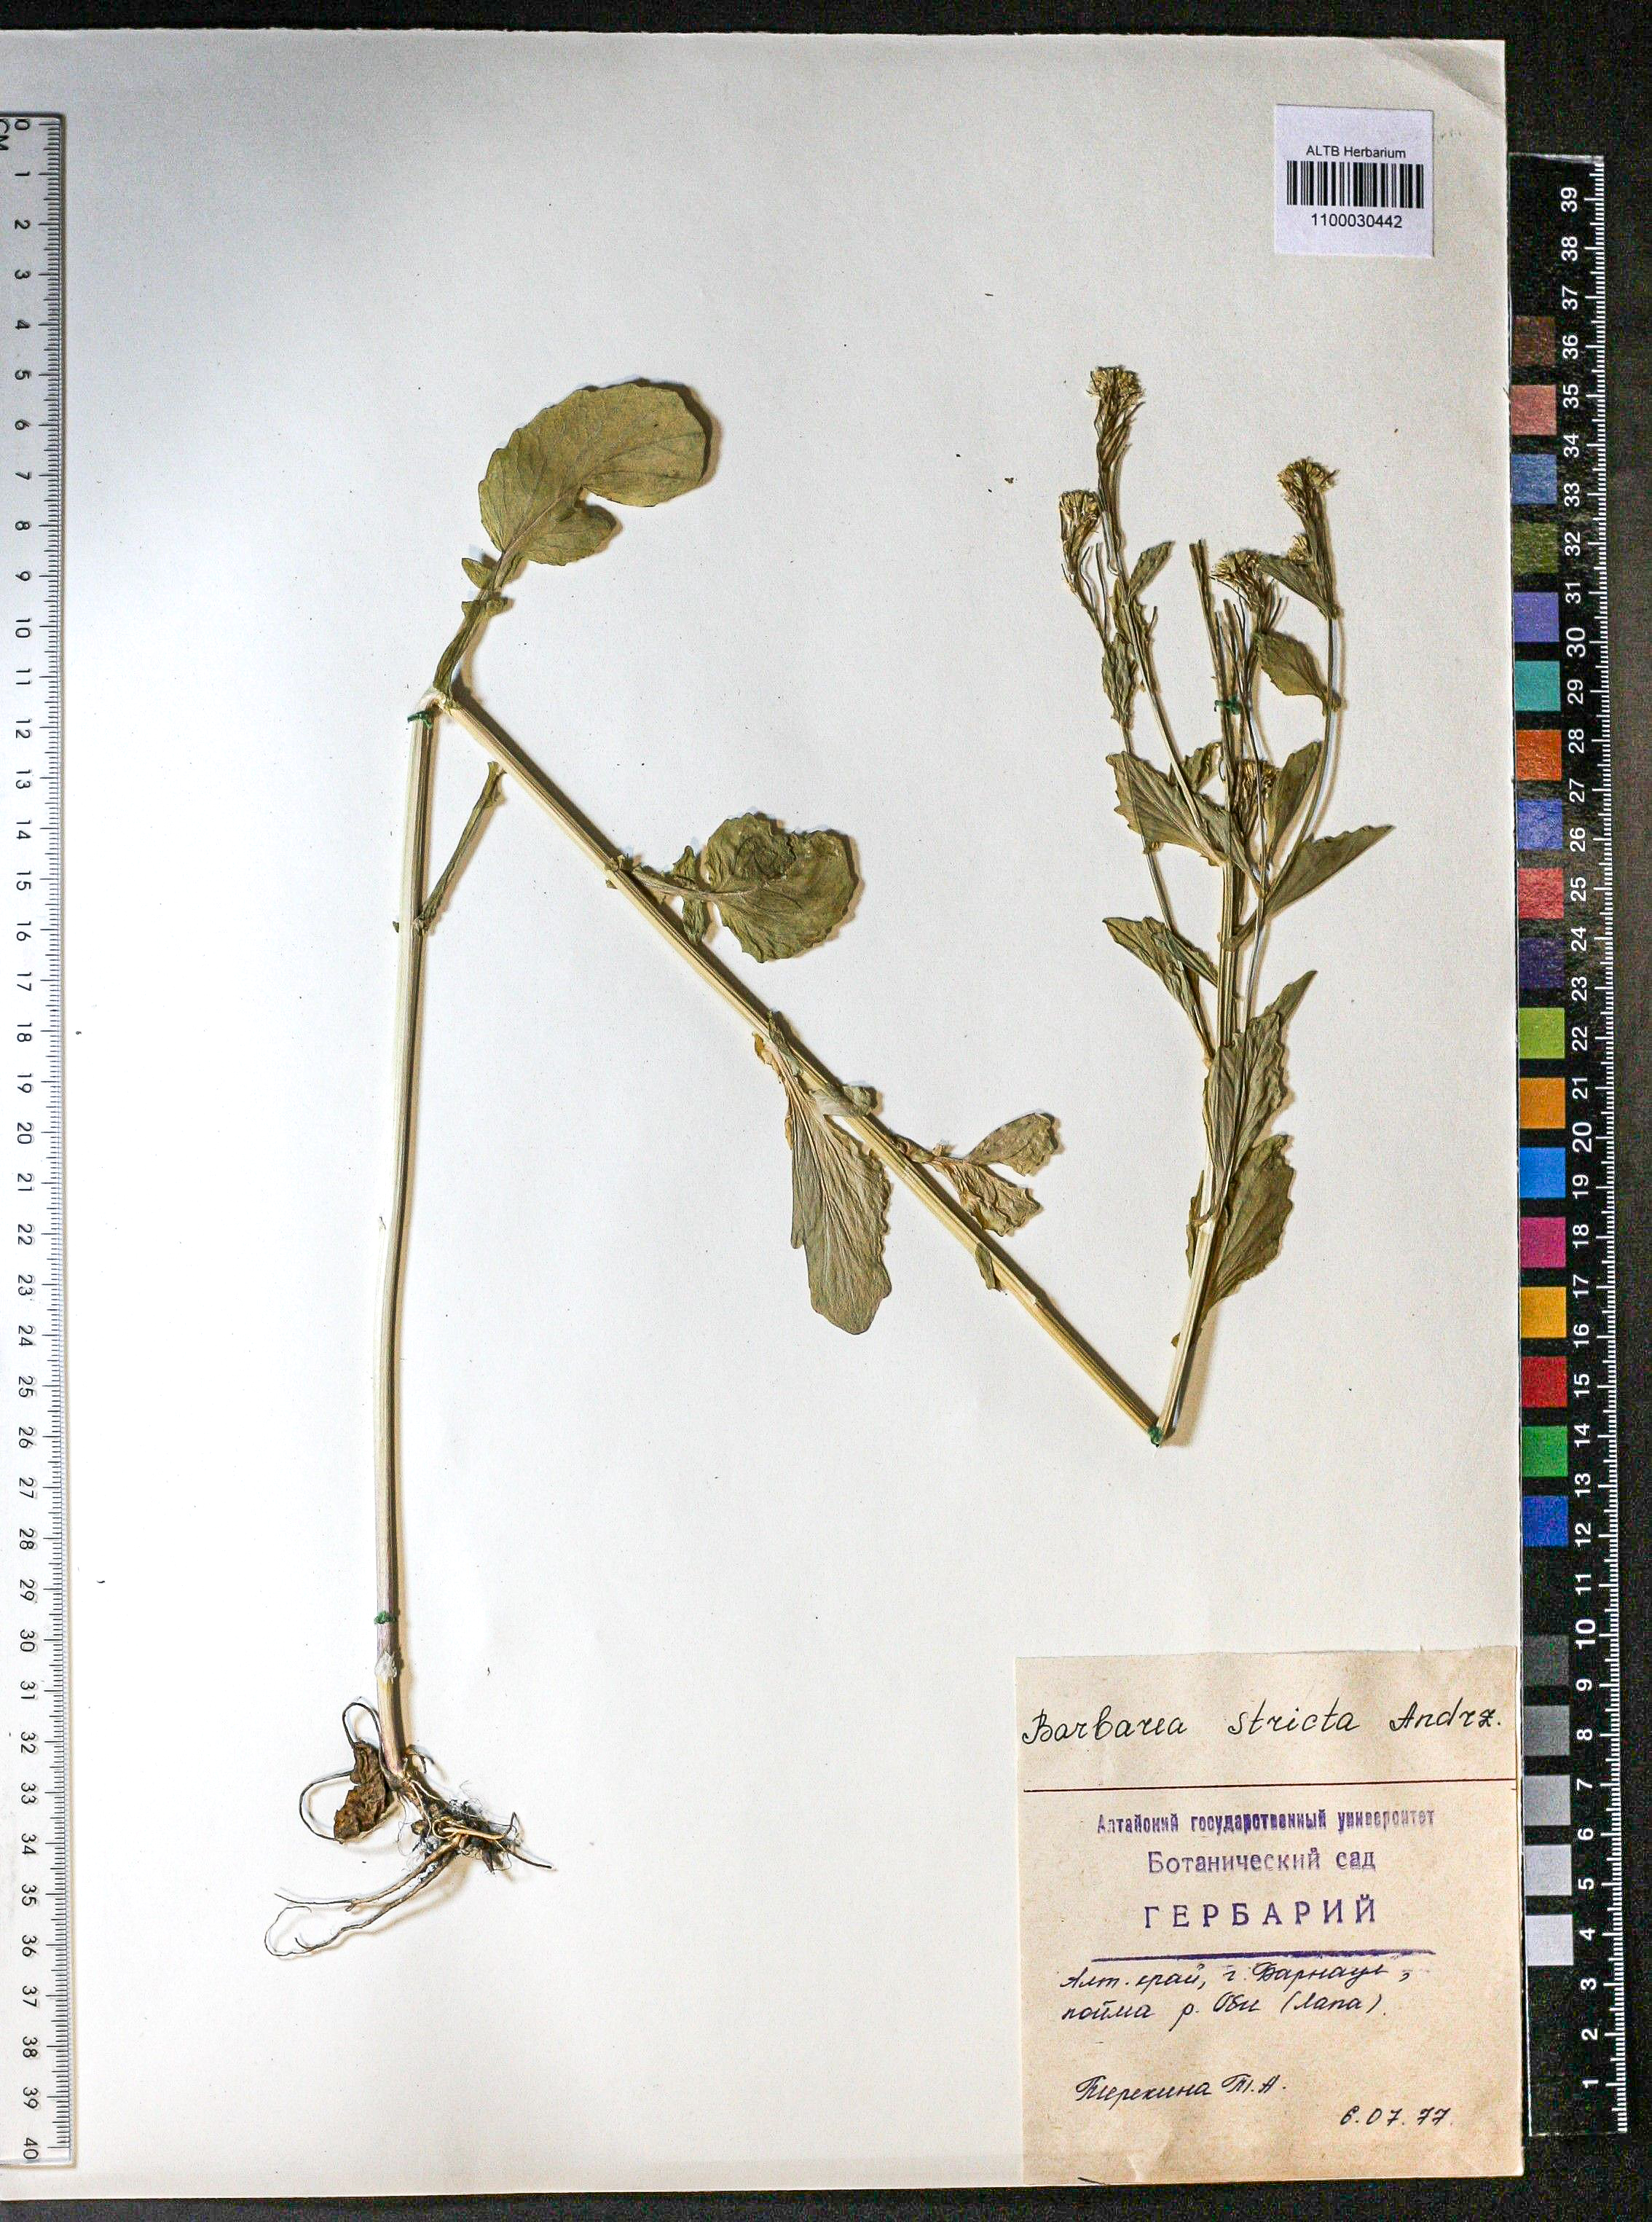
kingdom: Plantae
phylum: Tracheophyta
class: Magnoliopsida
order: Brassicales
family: Brassicaceae
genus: Barbarea
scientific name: Barbarea vulgaris
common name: Cressy-greens
